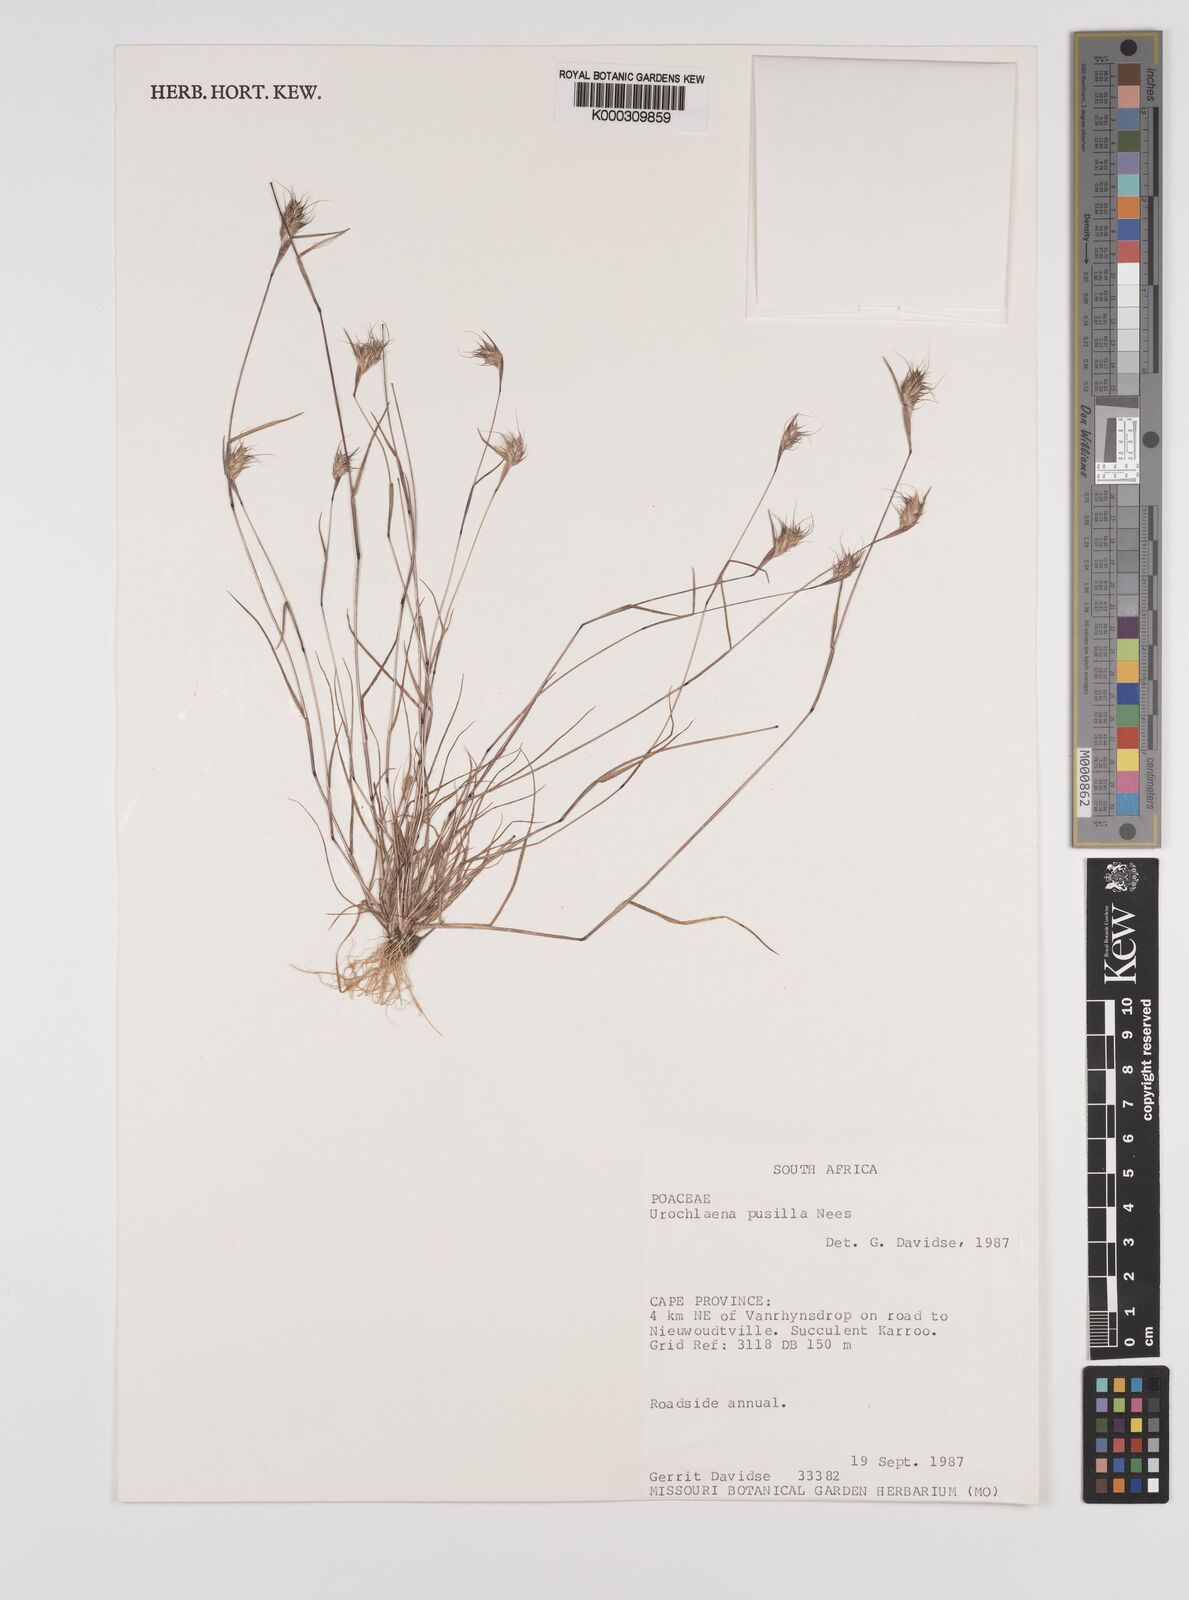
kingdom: Plantae
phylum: Tracheophyta
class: Liliopsida
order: Poales
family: Poaceae
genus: Tribolium
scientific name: Tribolium pusillum
